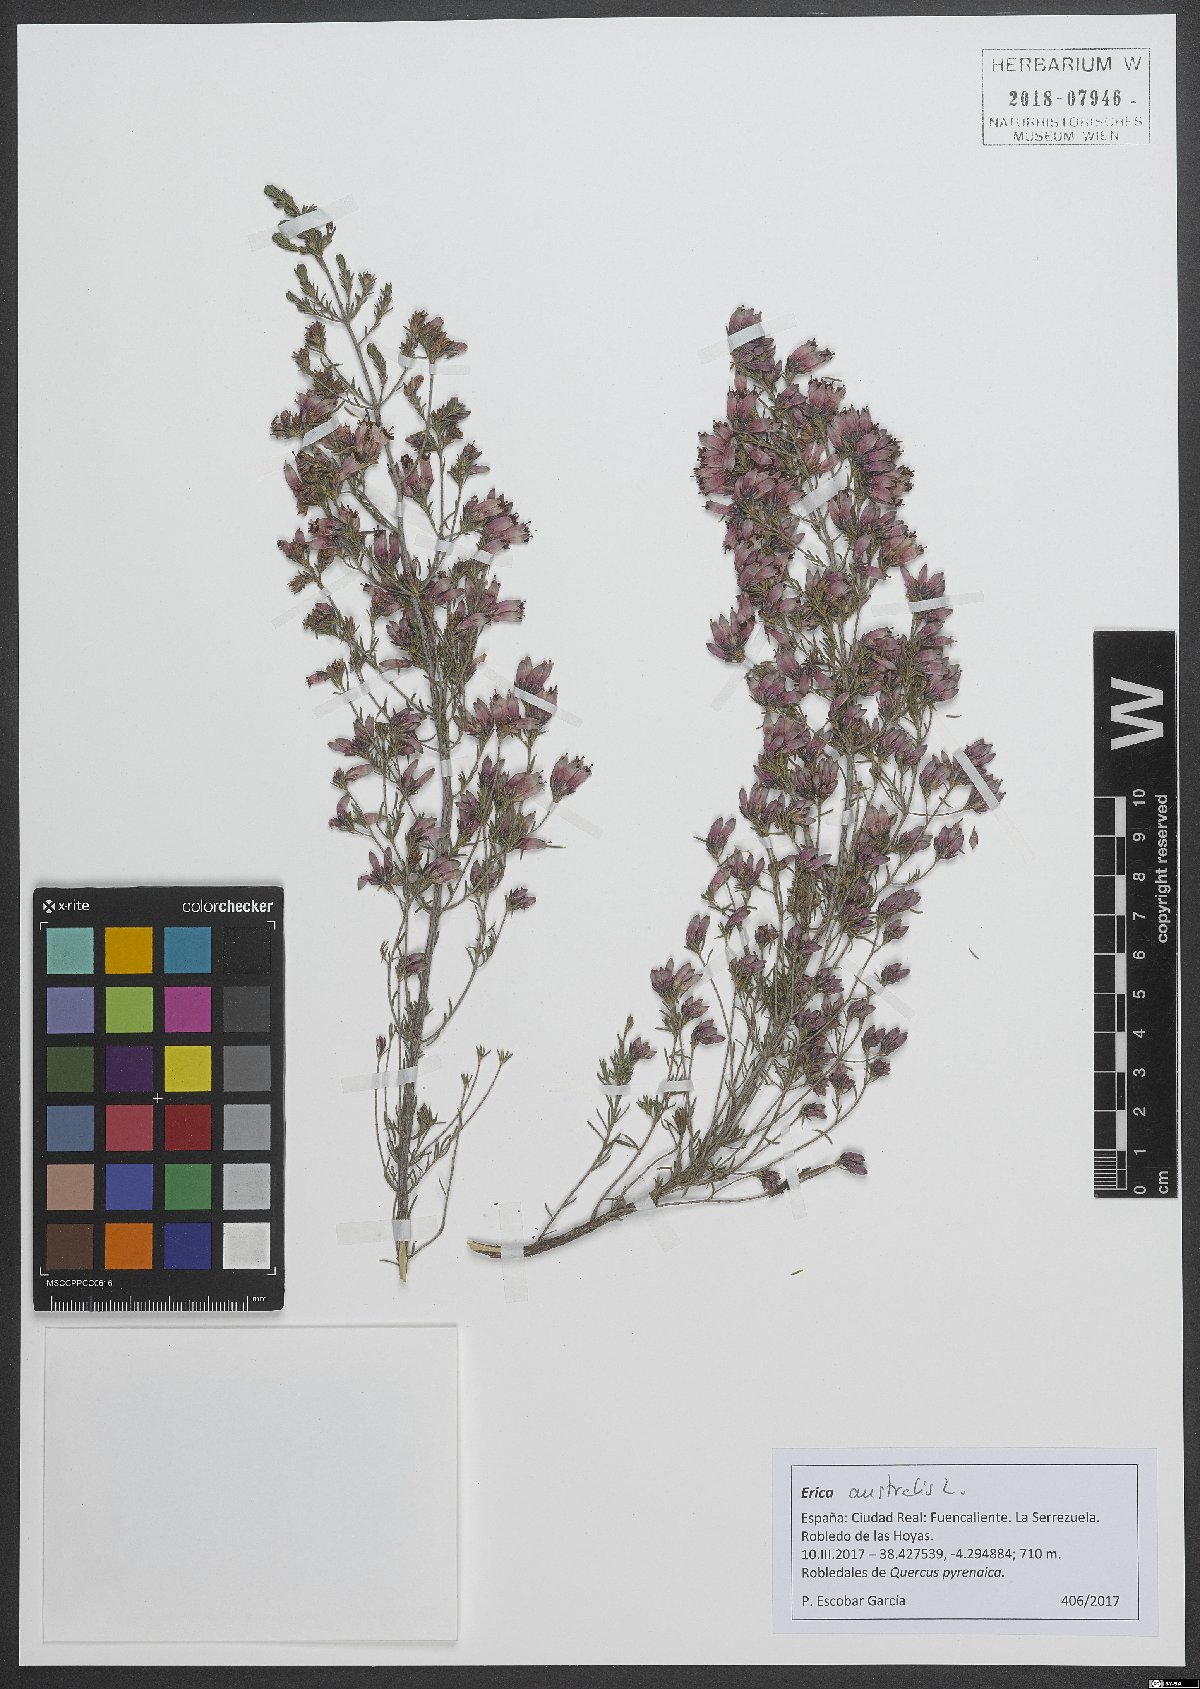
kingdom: Plantae
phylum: Tracheophyta
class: Magnoliopsida
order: Ericales
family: Ericaceae
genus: Erica
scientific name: Erica australis
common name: Spanish heath
